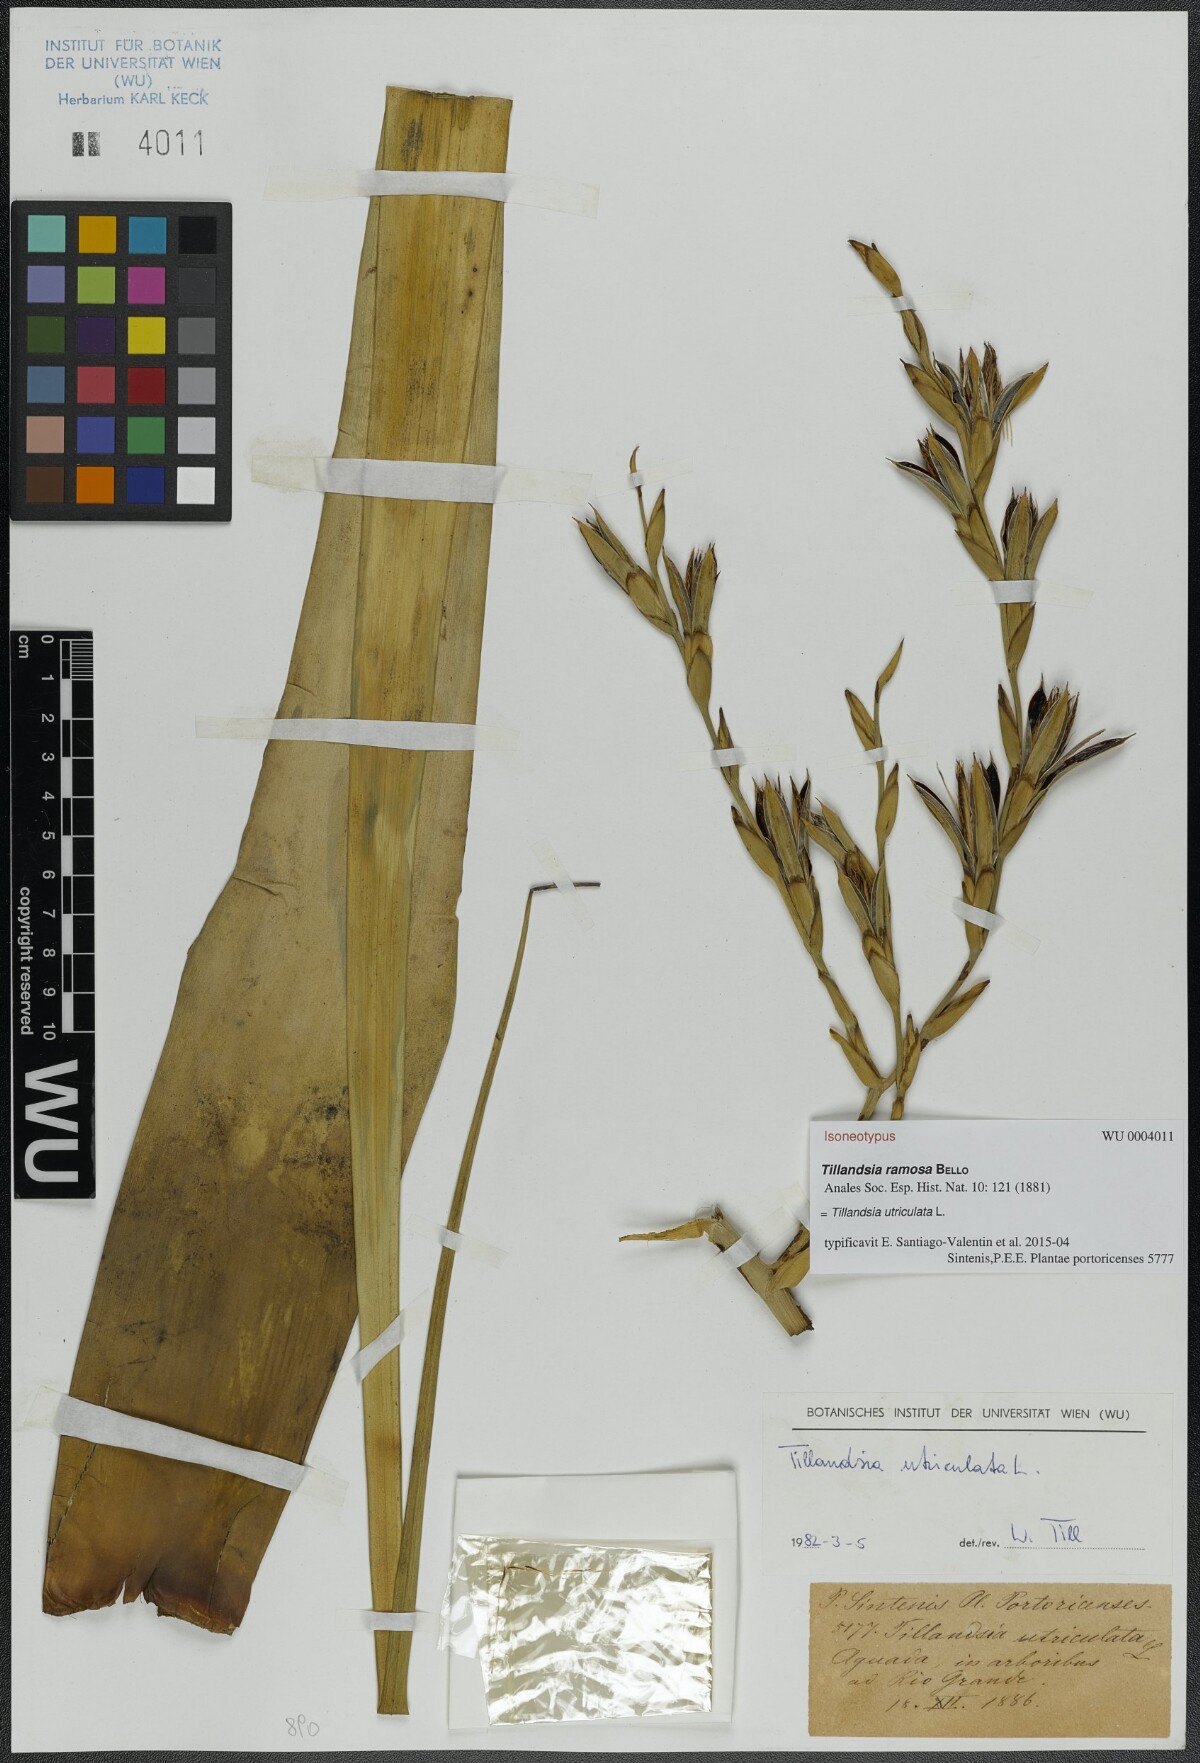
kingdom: Plantae
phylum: Tracheophyta
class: Liliopsida
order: Poales
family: Bromeliaceae
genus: Tillandsia
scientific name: Tillandsia utriculata
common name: Wild pine
